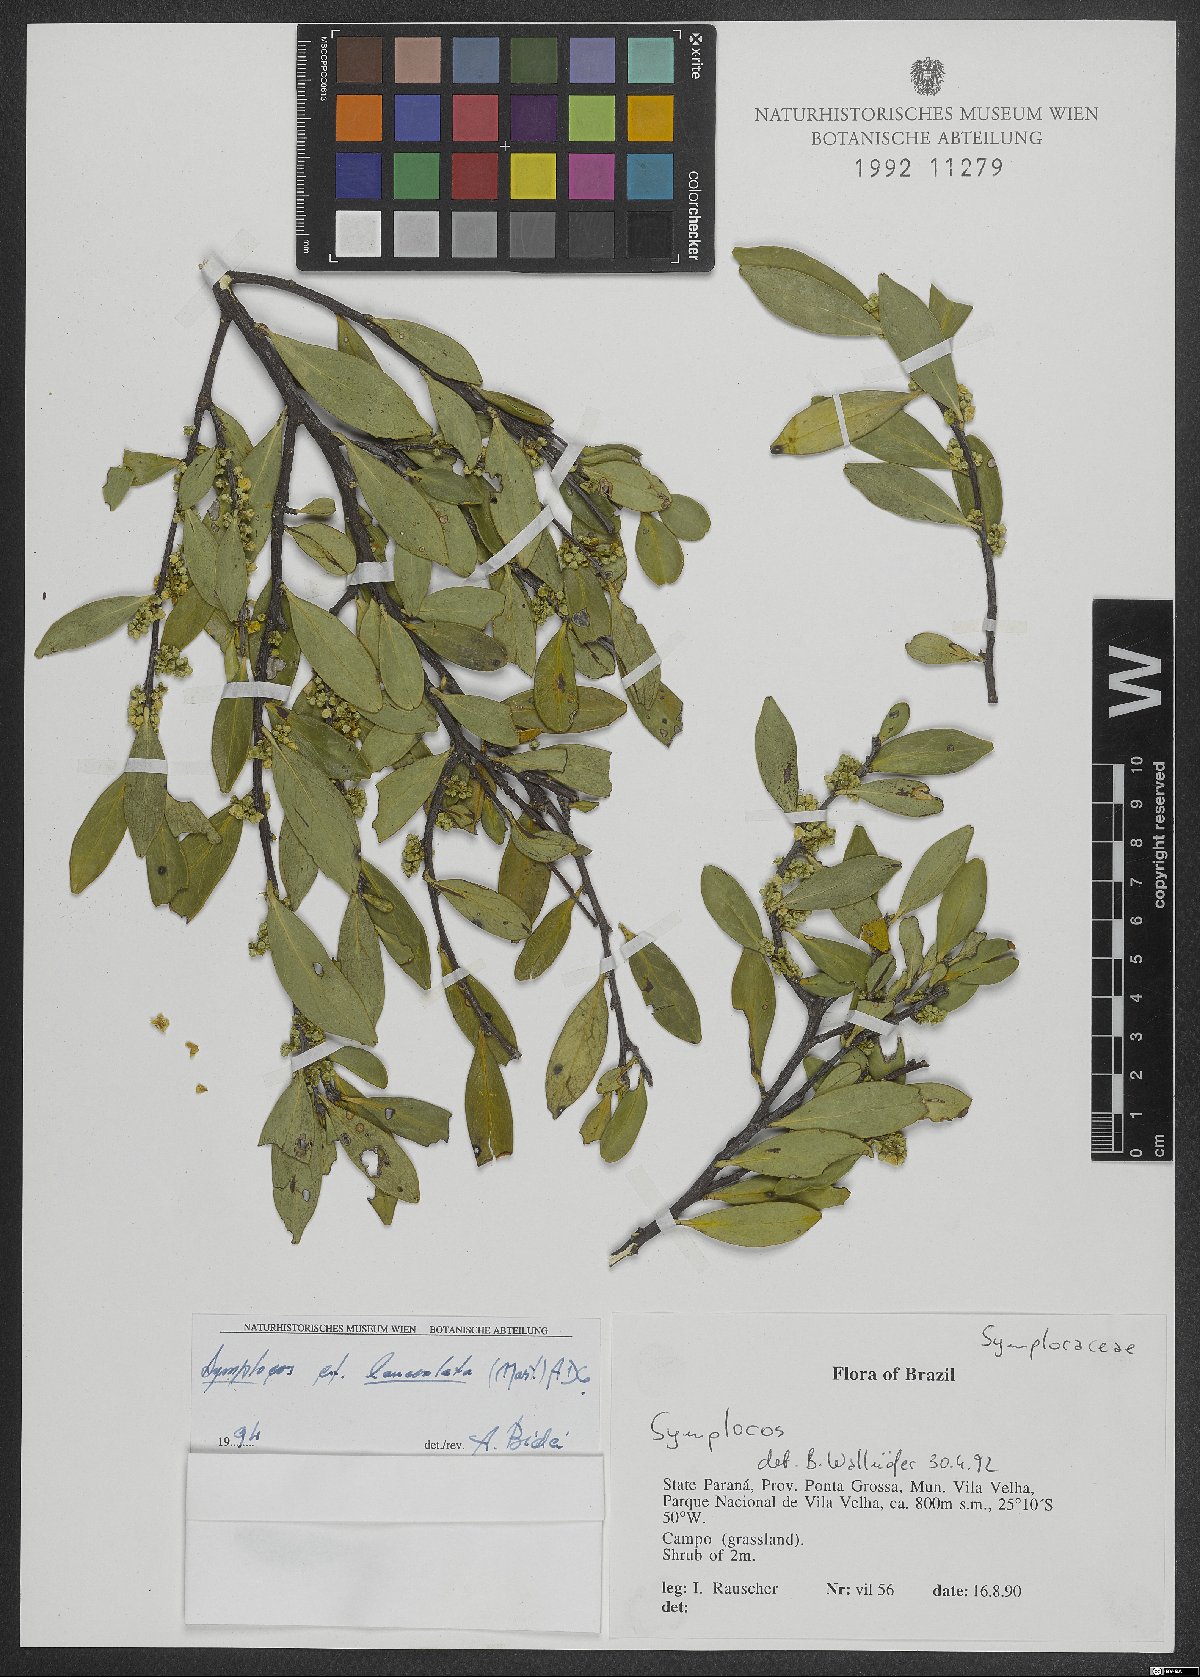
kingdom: Plantae
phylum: Tracheophyta
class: Magnoliopsida
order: Ericales
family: Symplocaceae
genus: Symplocos
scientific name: Symplocos oblongifolia
